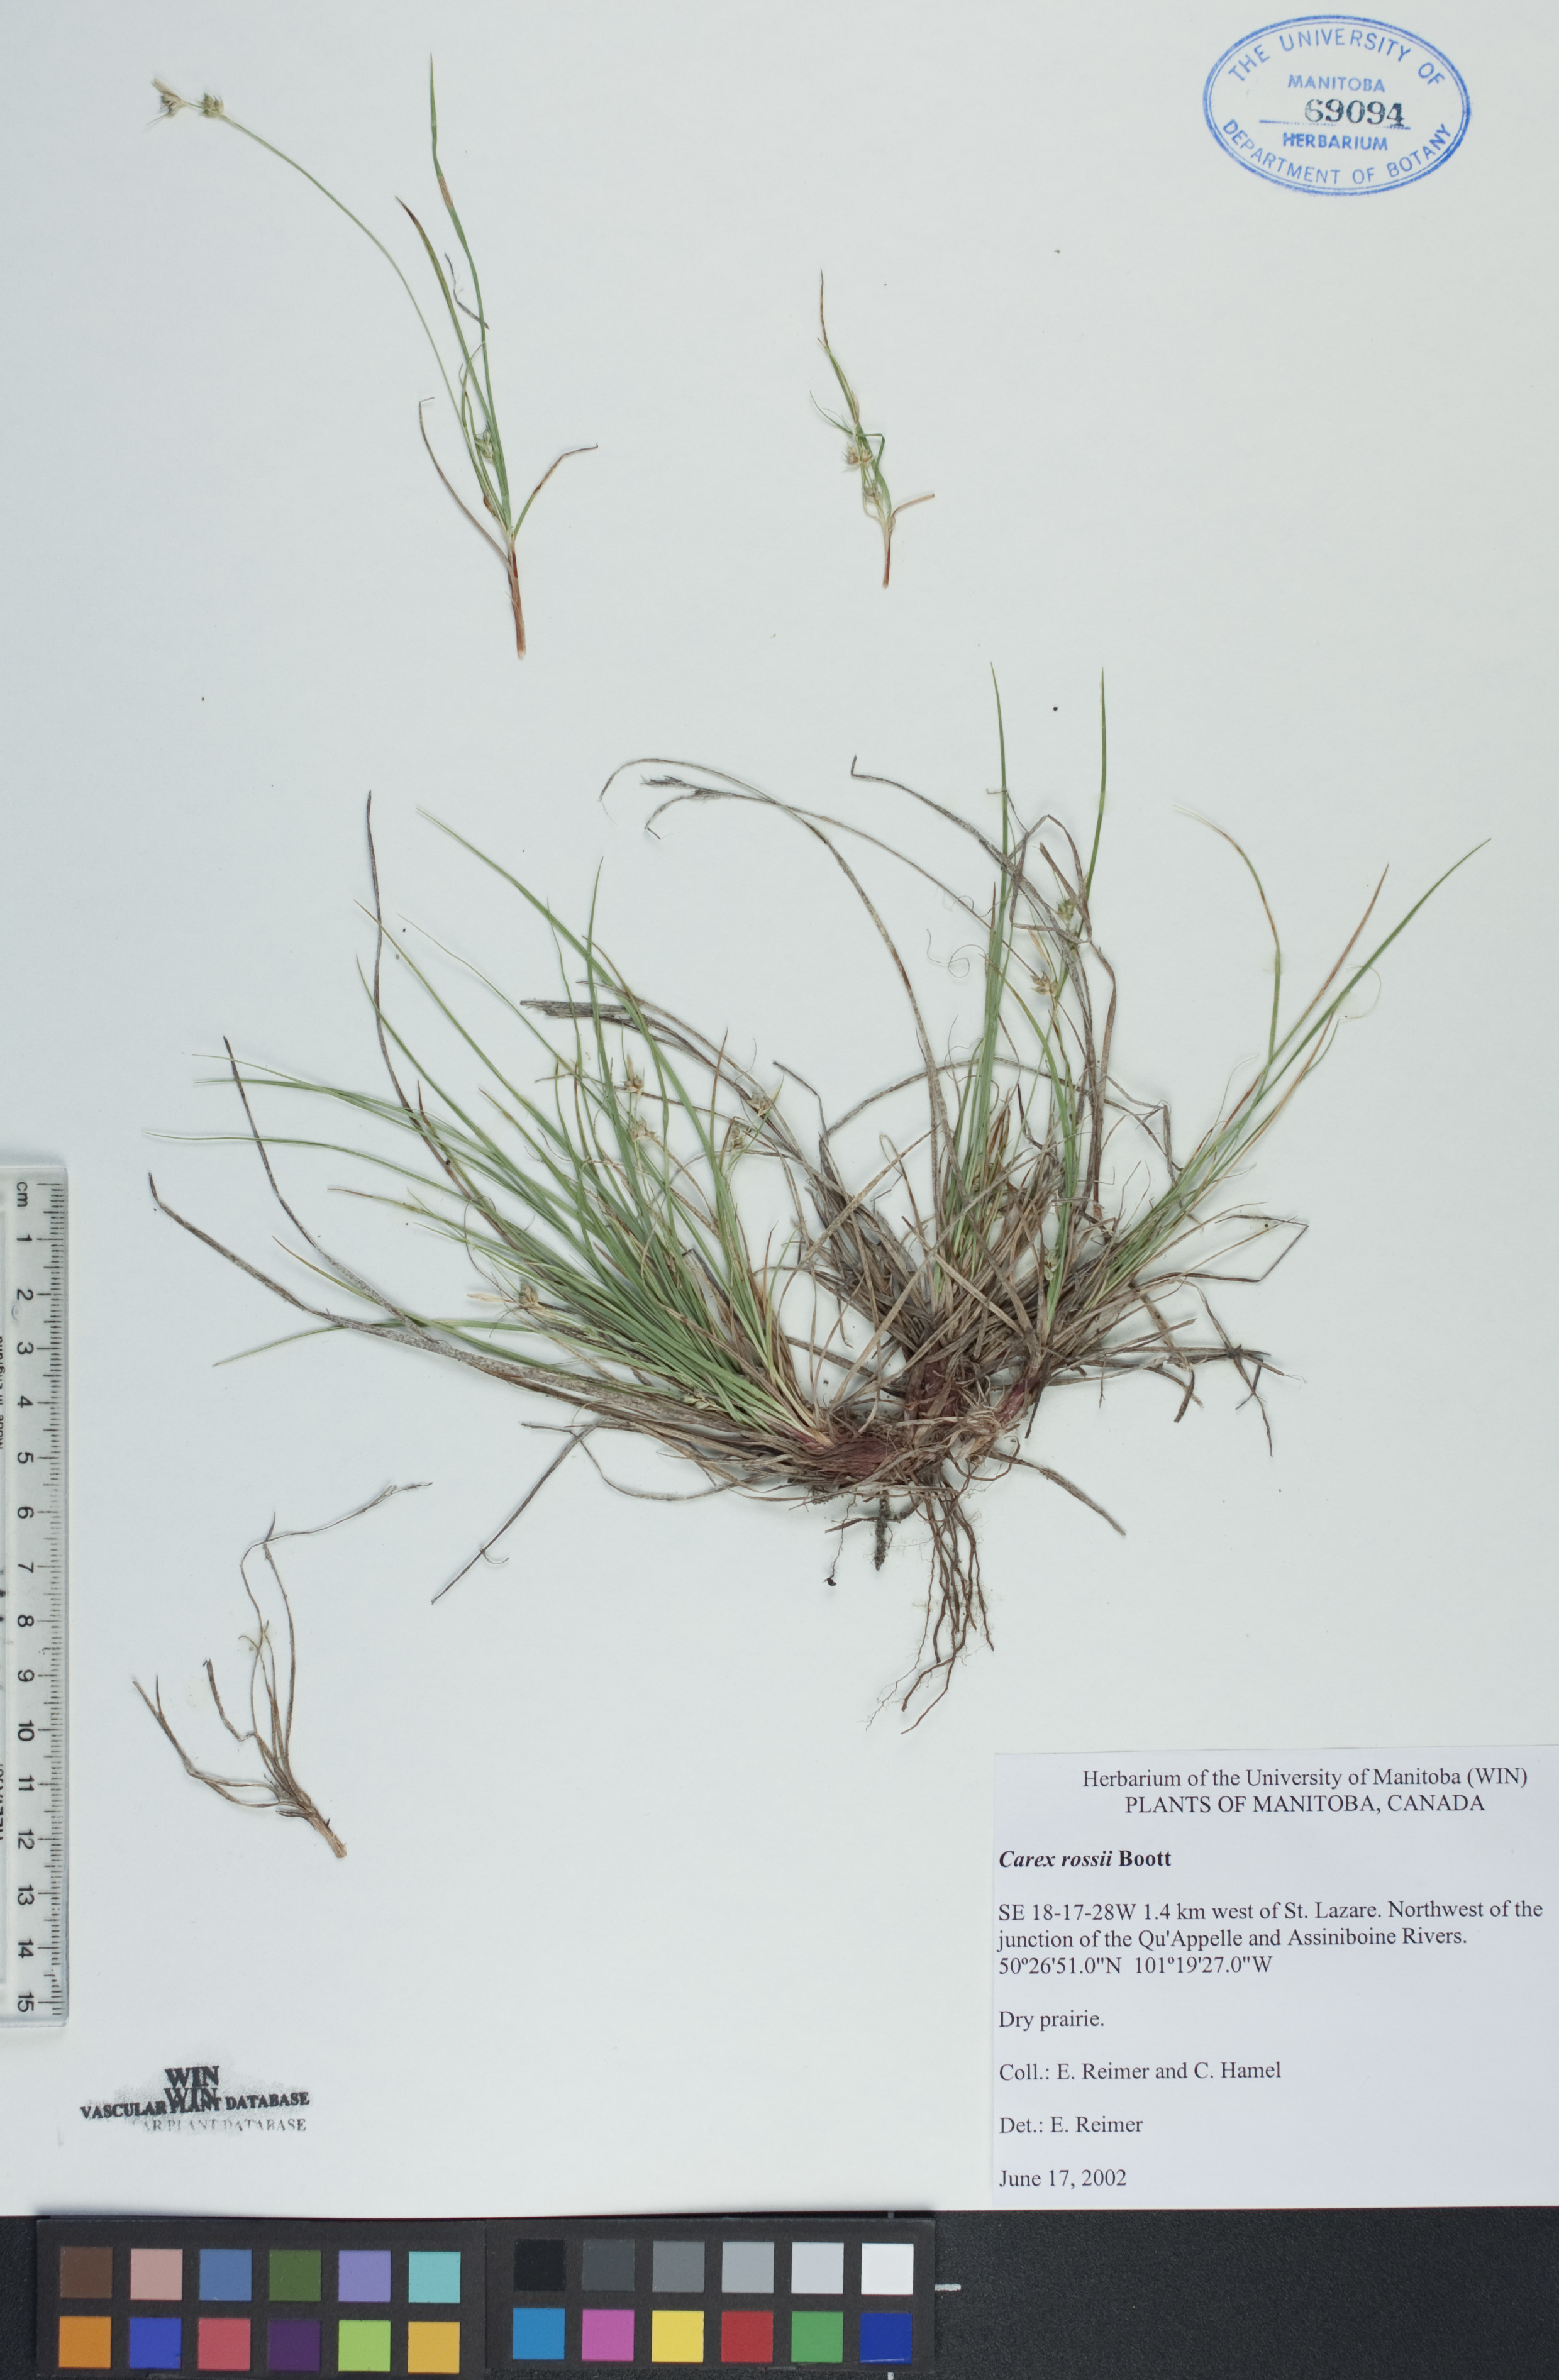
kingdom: Plantae
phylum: Tracheophyta
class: Liliopsida
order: Poales
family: Cyperaceae
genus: Carex
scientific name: Carex rossii
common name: Ross' sedge
